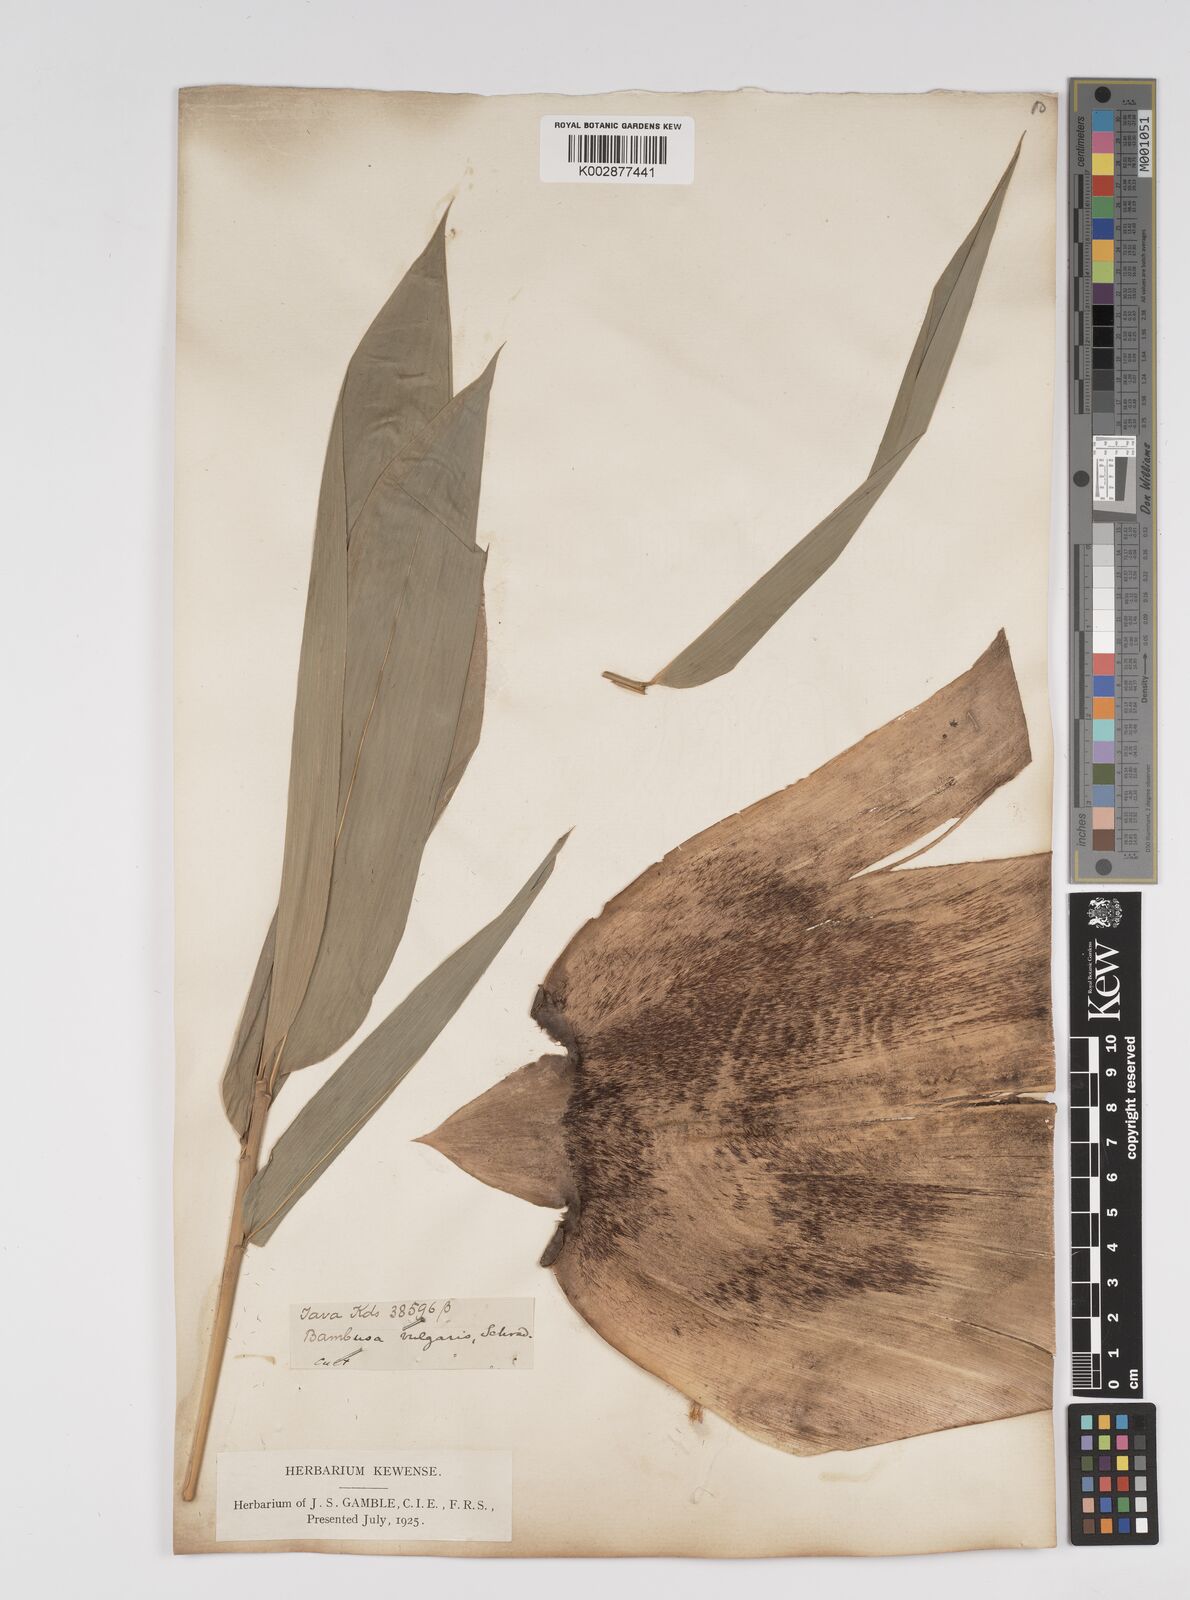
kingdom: Plantae
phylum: Tracheophyta
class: Liliopsida
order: Poales
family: Poaceae
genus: Bambusa
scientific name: Bambusa vulgaris
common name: Common bamboo
